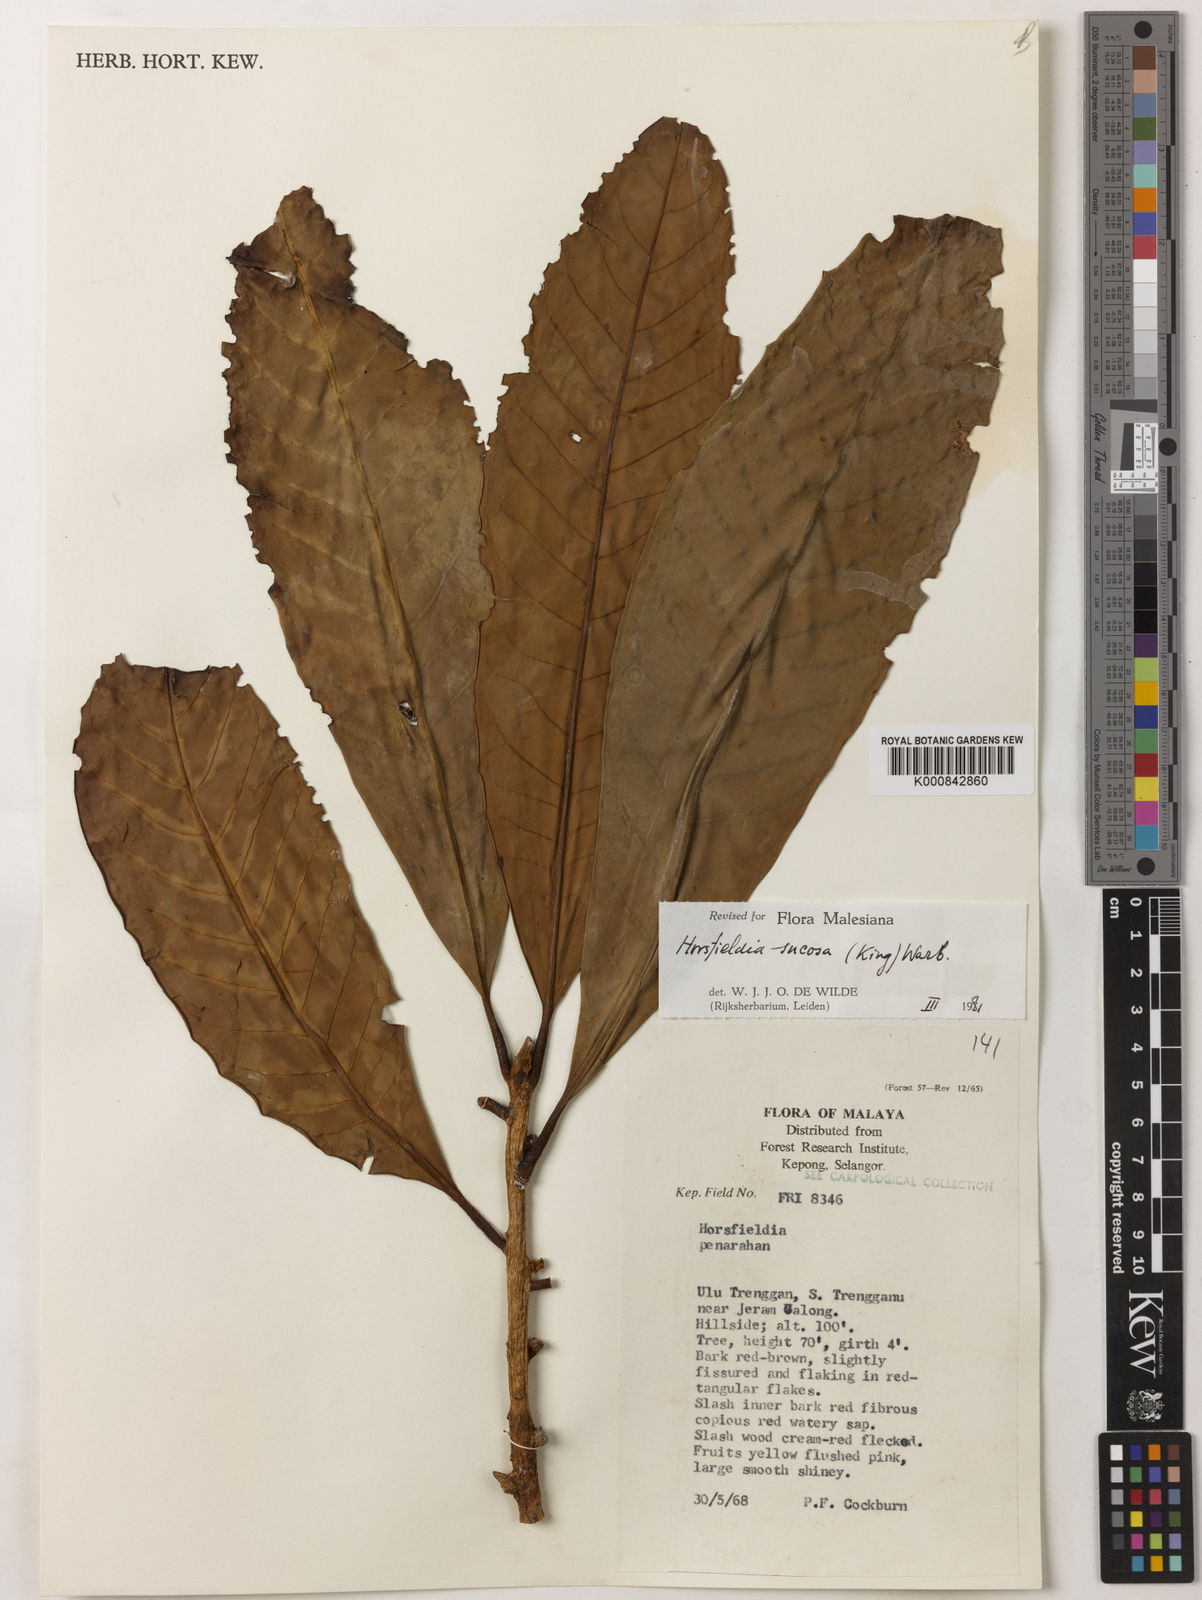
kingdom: Plantae
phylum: Tracheophyta
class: Magnoliopsida
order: Magnoliales
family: Myristicaceae
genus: Horsfieldia
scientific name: Horsfieldia sucosa
